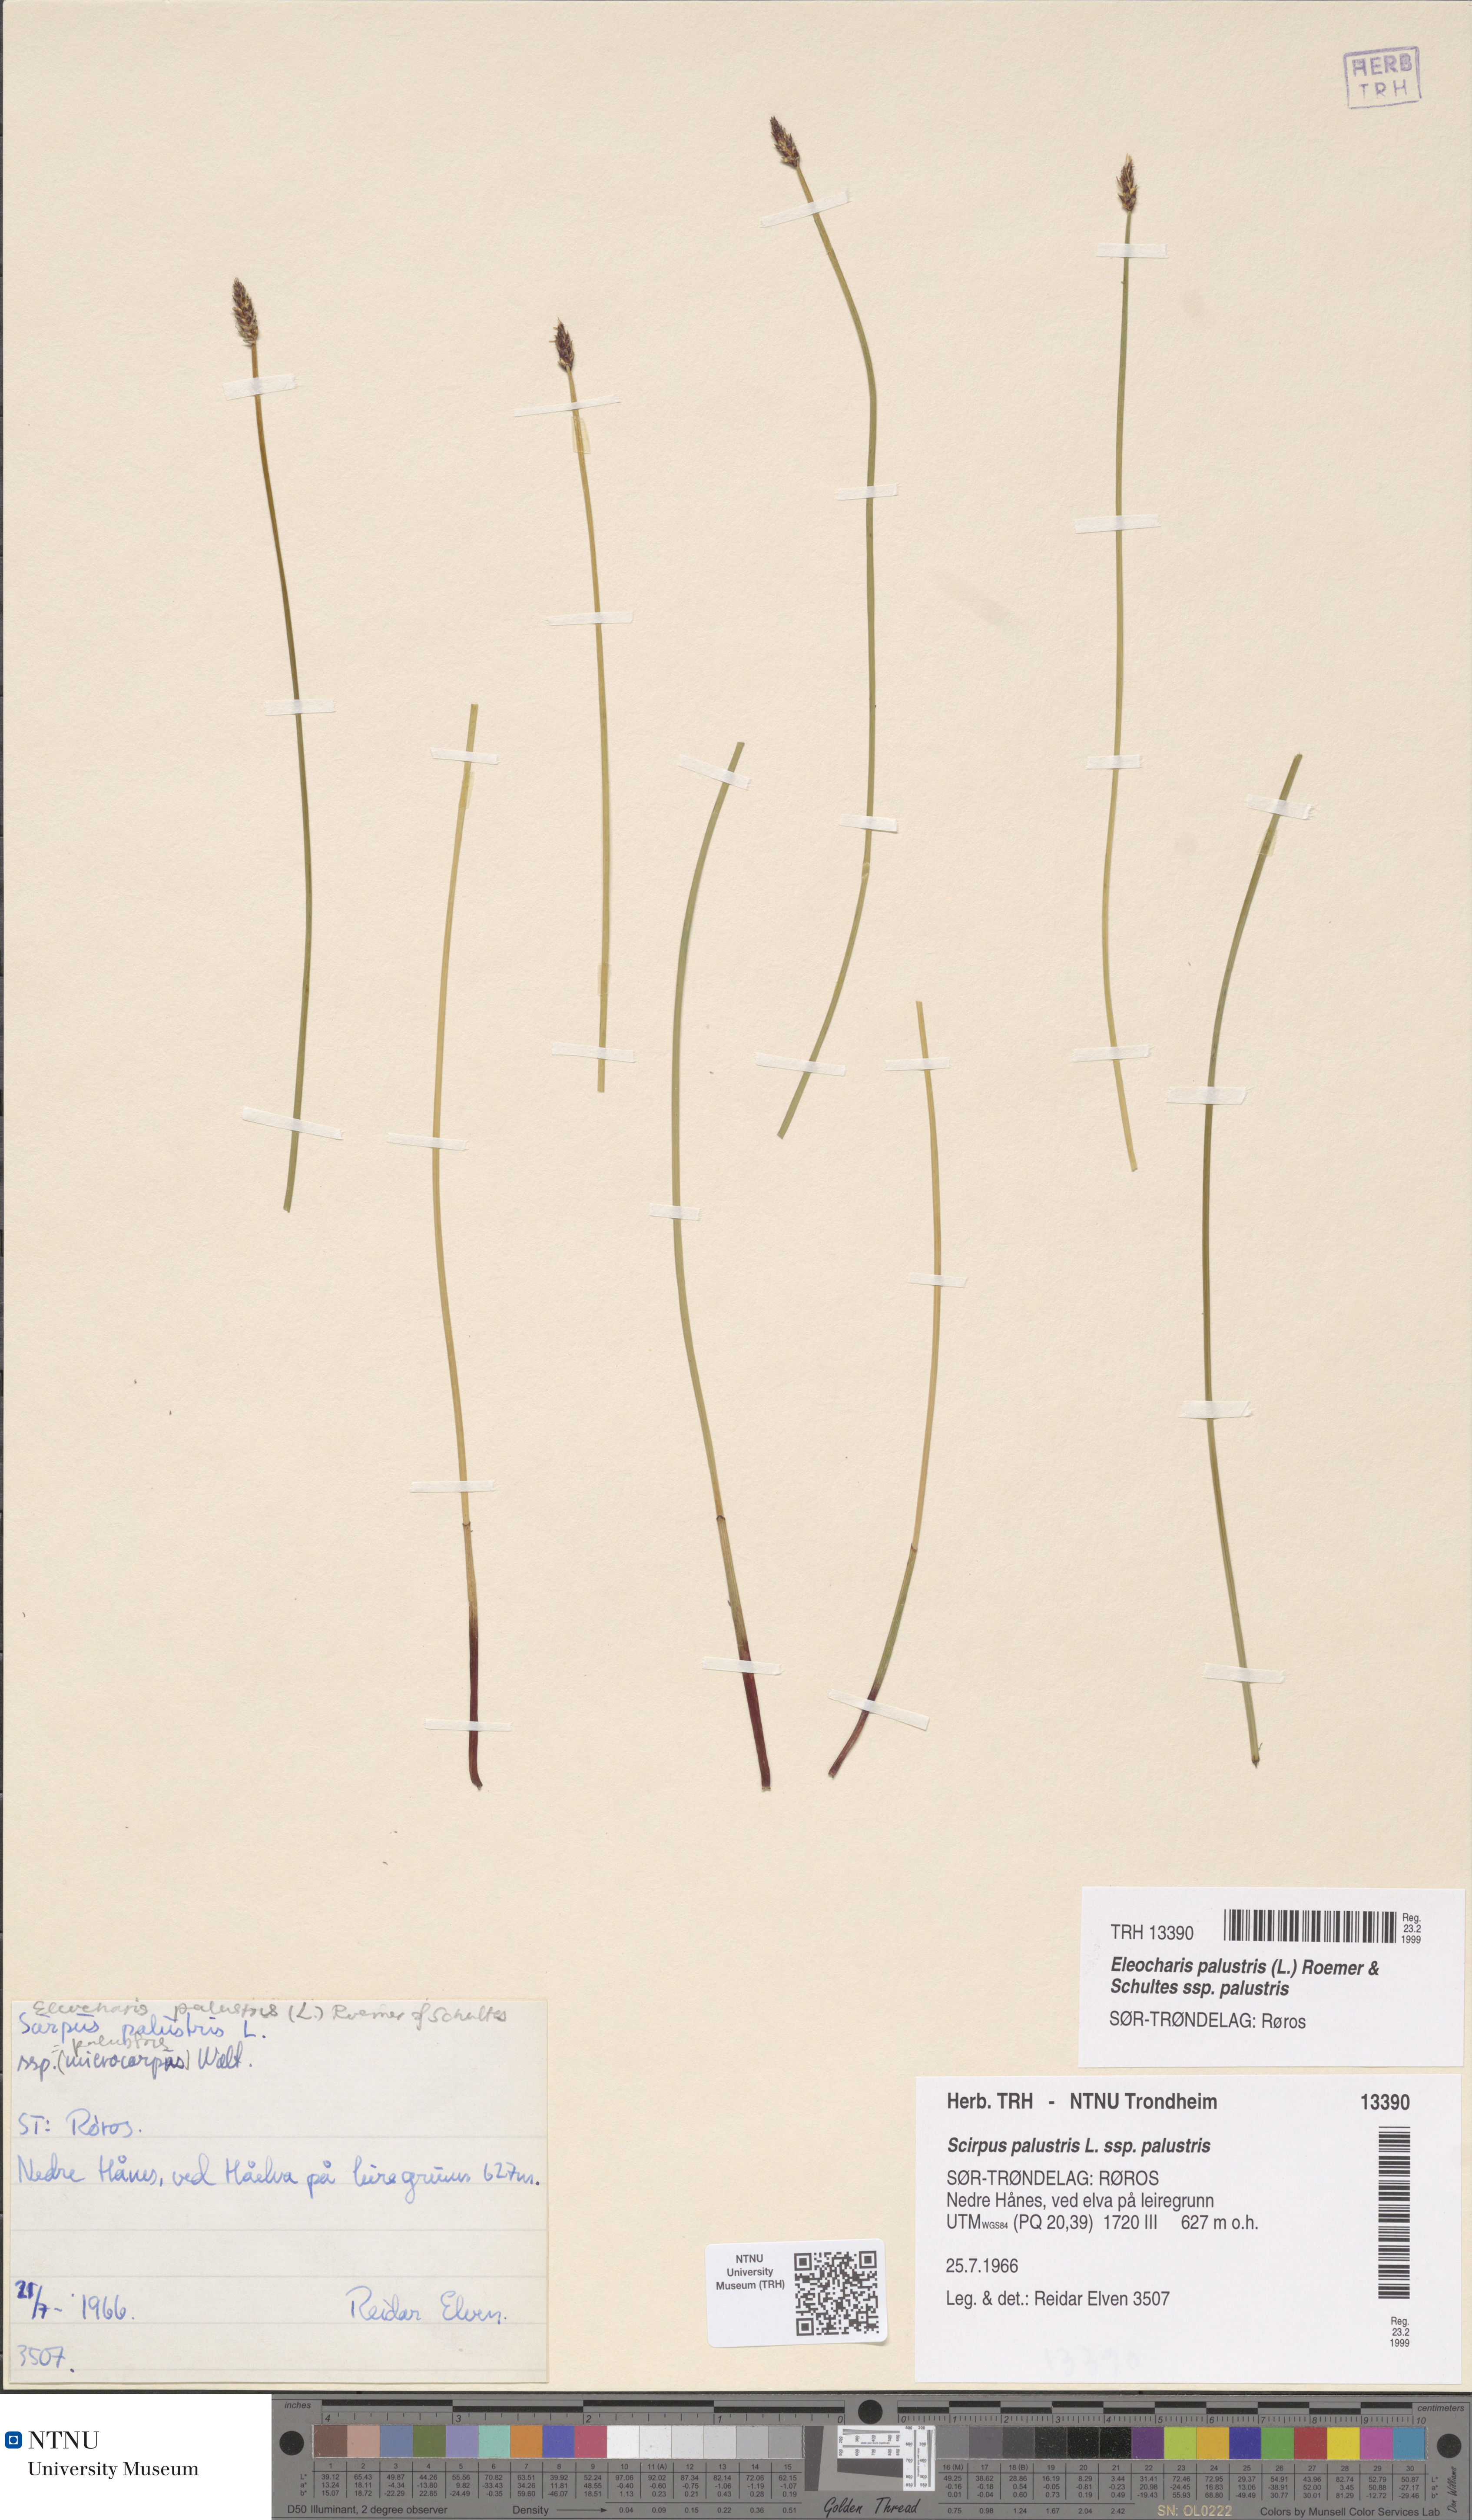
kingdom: Plantae
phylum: Tracheophyta
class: Liliopsida
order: Poales
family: Cyperaceae
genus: Eleocharis
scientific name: Eleocharis palustris
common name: Common spike-rush
